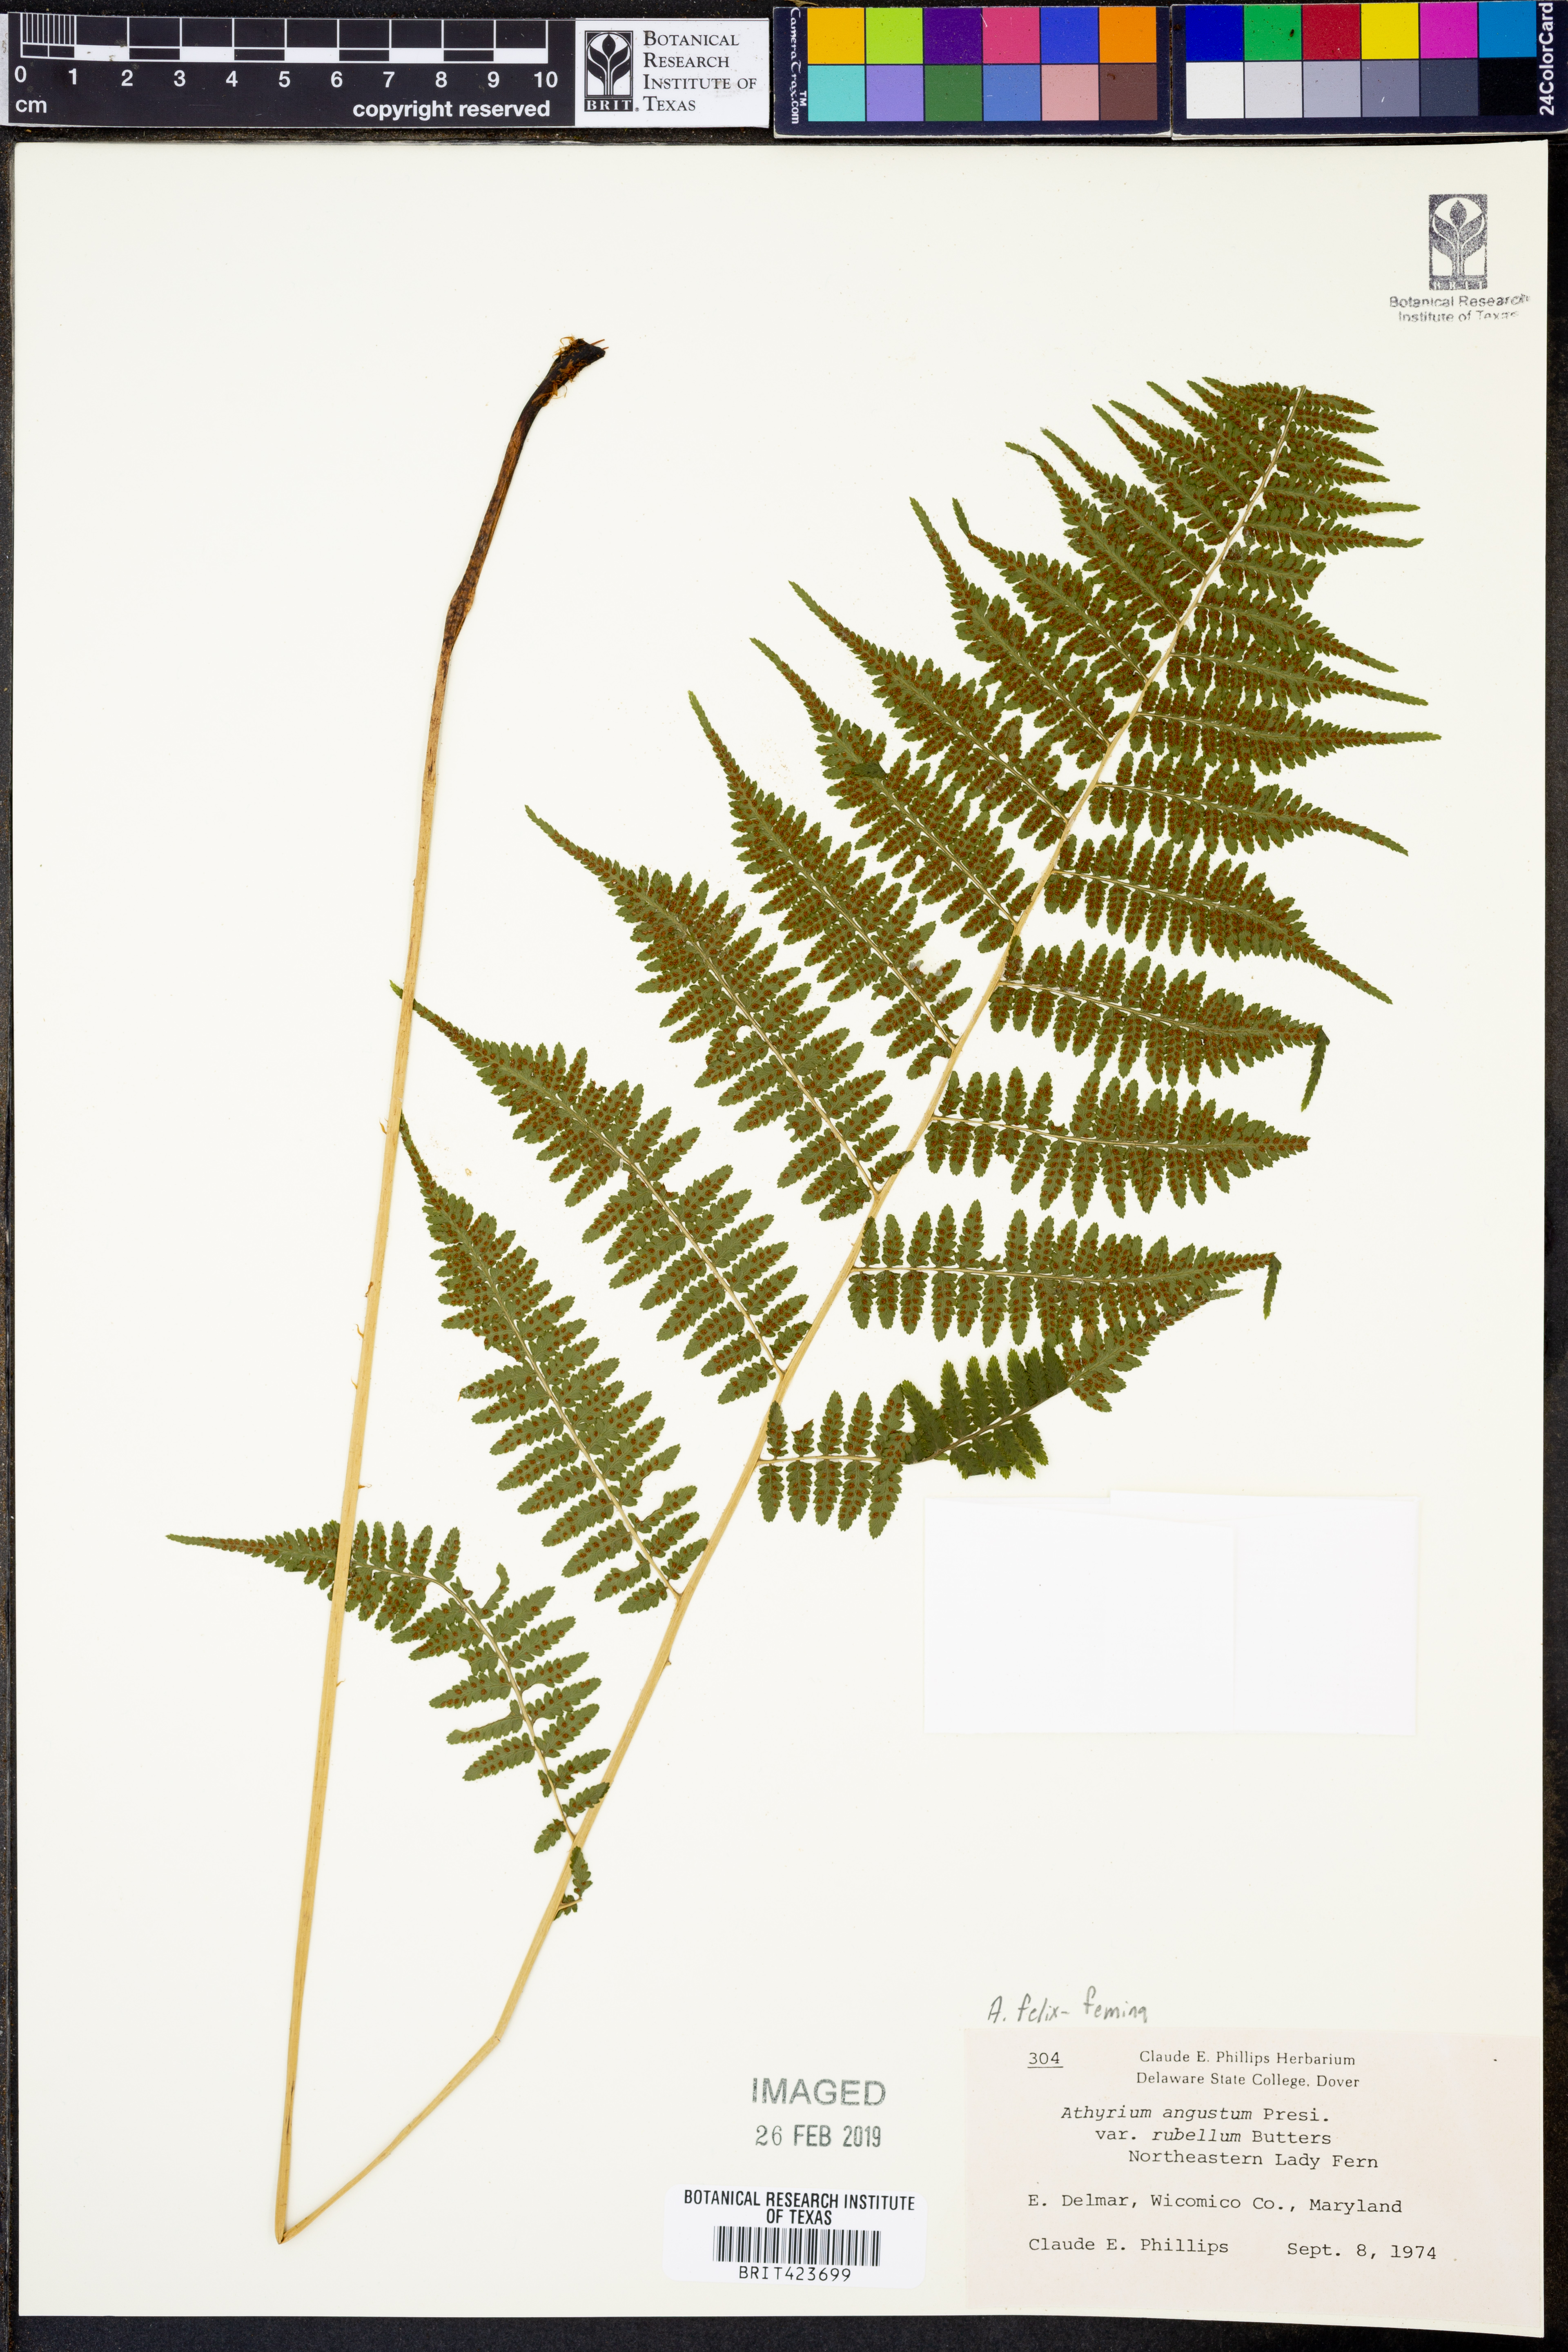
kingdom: Plantae
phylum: Tracheophyta
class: Polypodiopsida
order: Polypodiales
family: Athyriaceae
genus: Athyrium
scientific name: Athyrium filix-femina
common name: Lady fern
